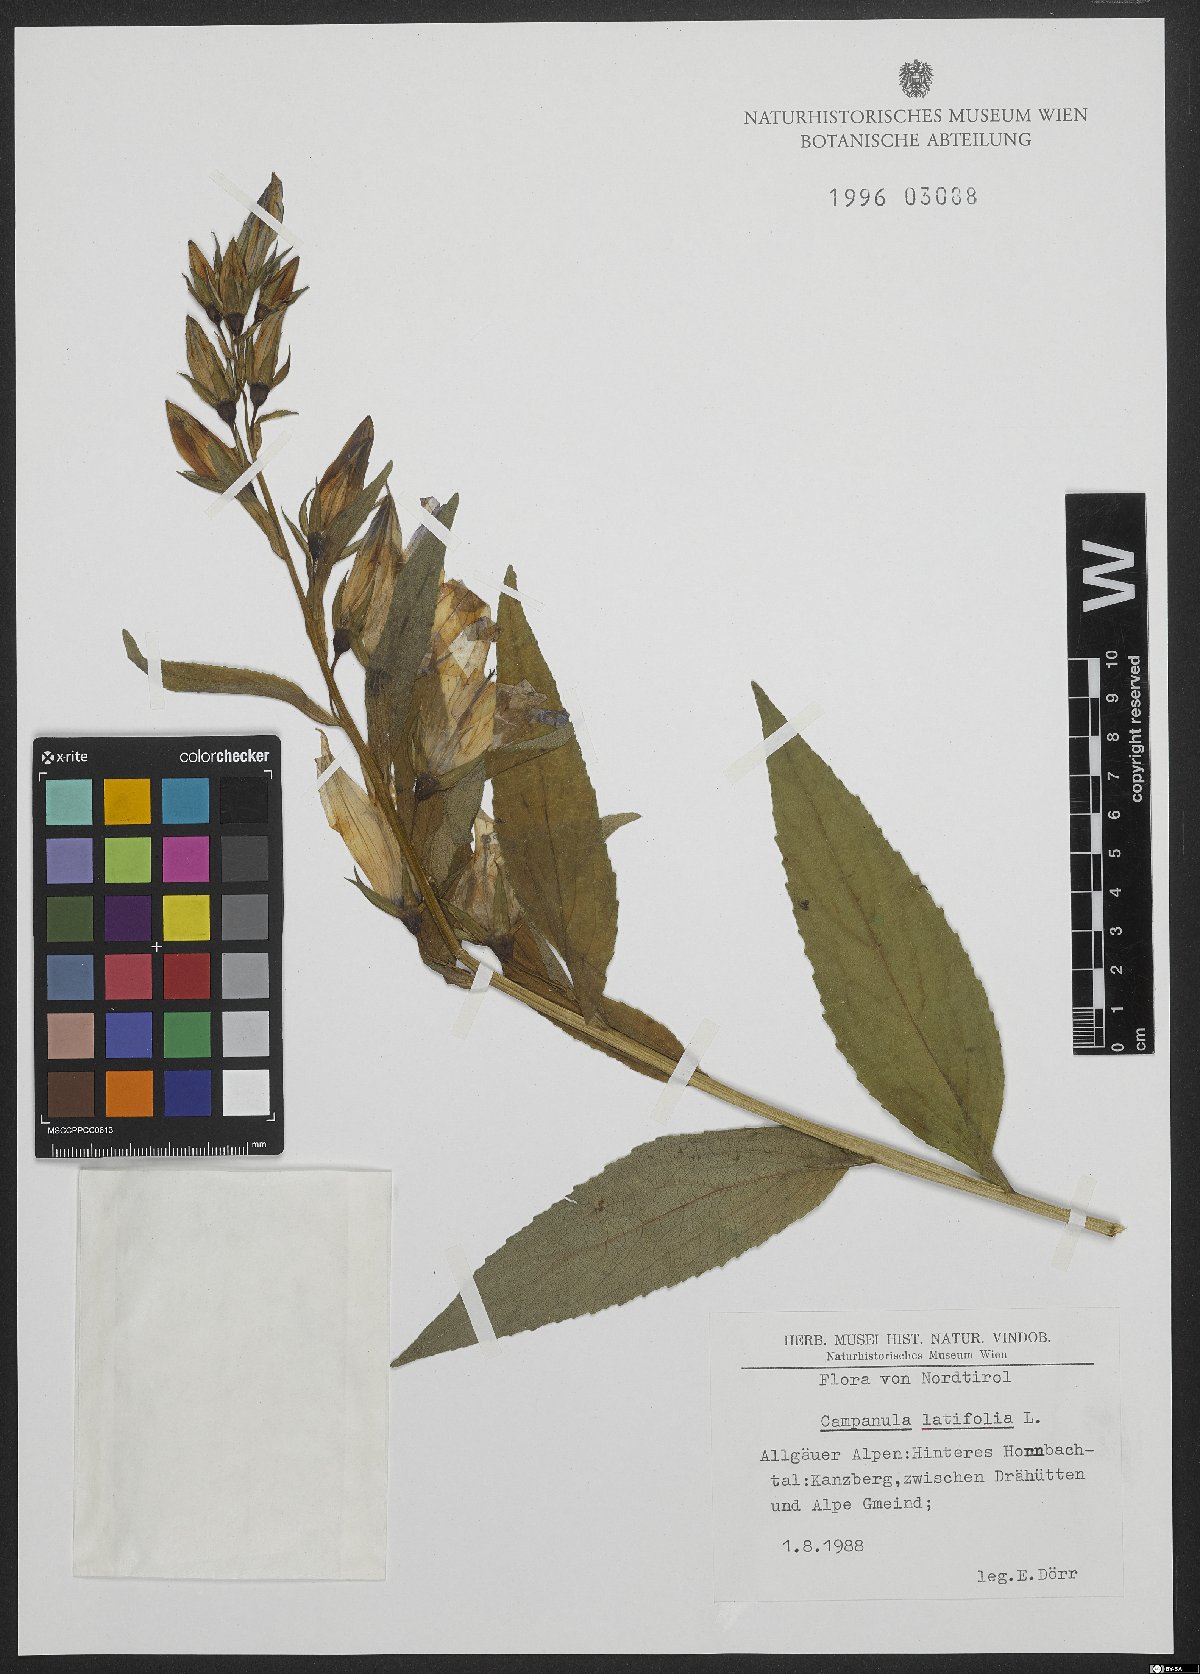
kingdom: Plantae
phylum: Tracheophyta
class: Magnoliopsida
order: Asterales
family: Campanulaceae
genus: Campanula
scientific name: Campanula latifolia
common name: Giant bellflower
